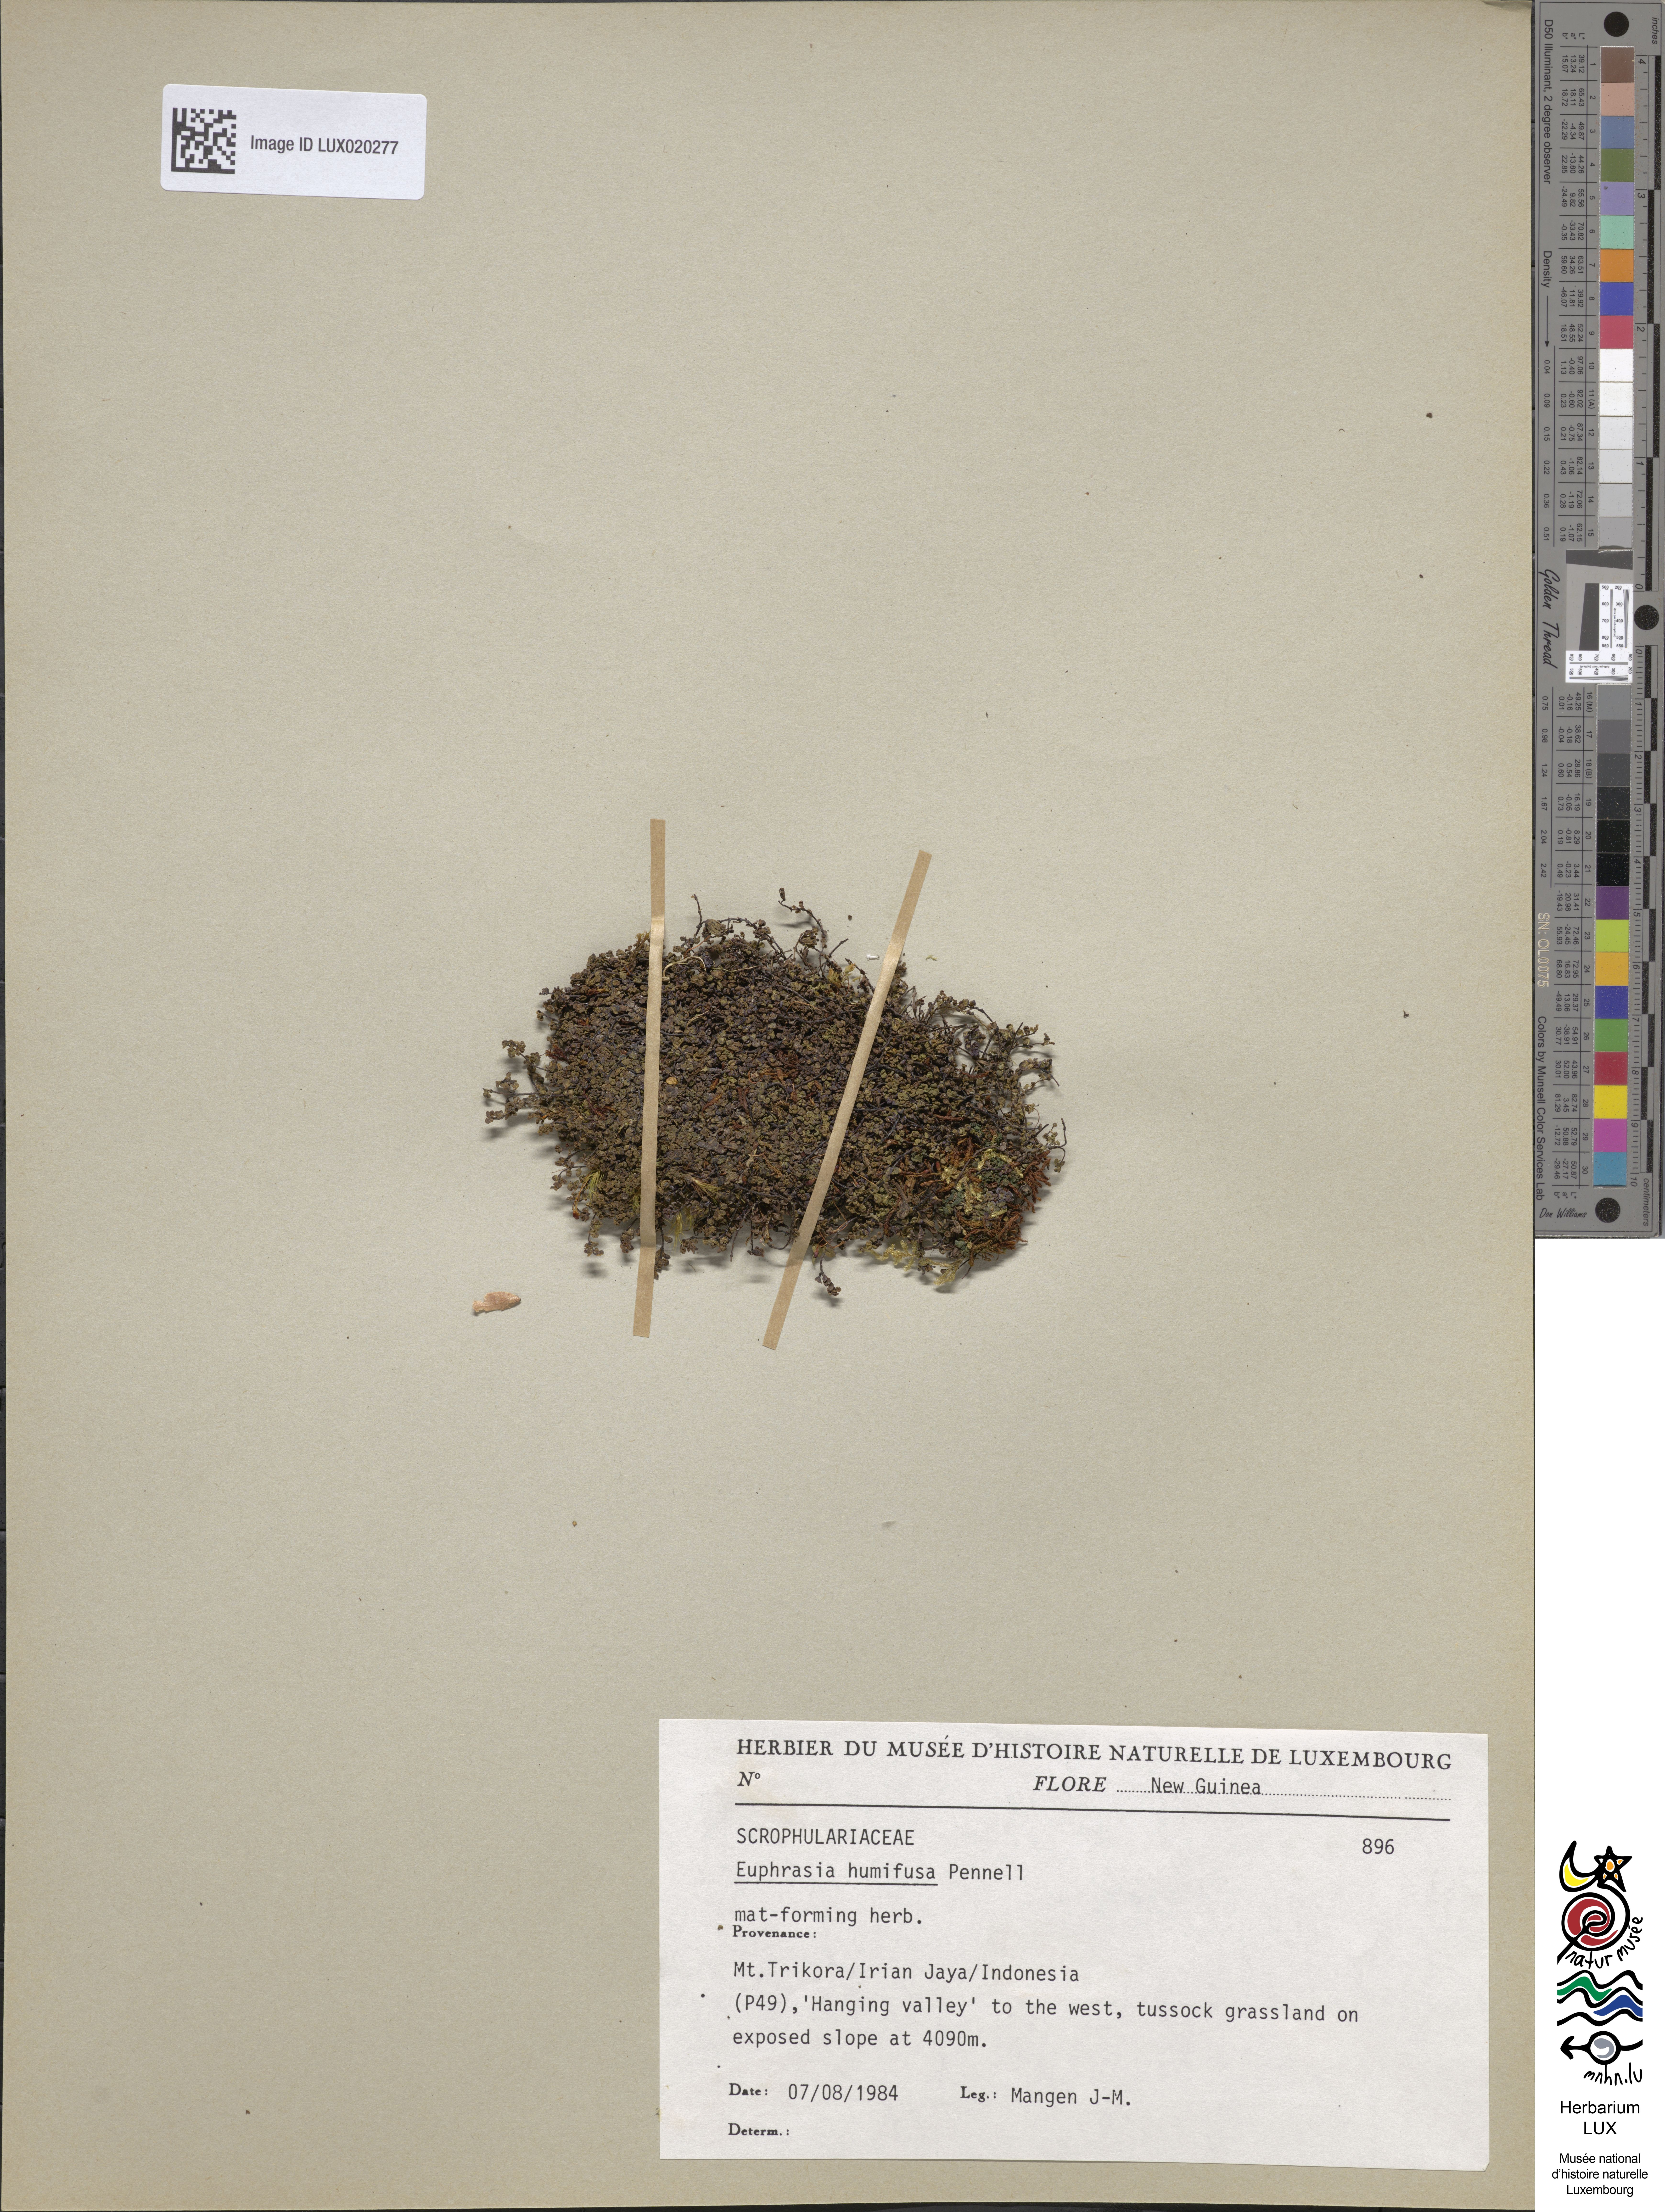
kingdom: Plantae
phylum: Tracheophyta
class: Magnoliopsida
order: Lamiales
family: Orobanchaceae
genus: Euphrasia
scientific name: Euphrasia humifusa
